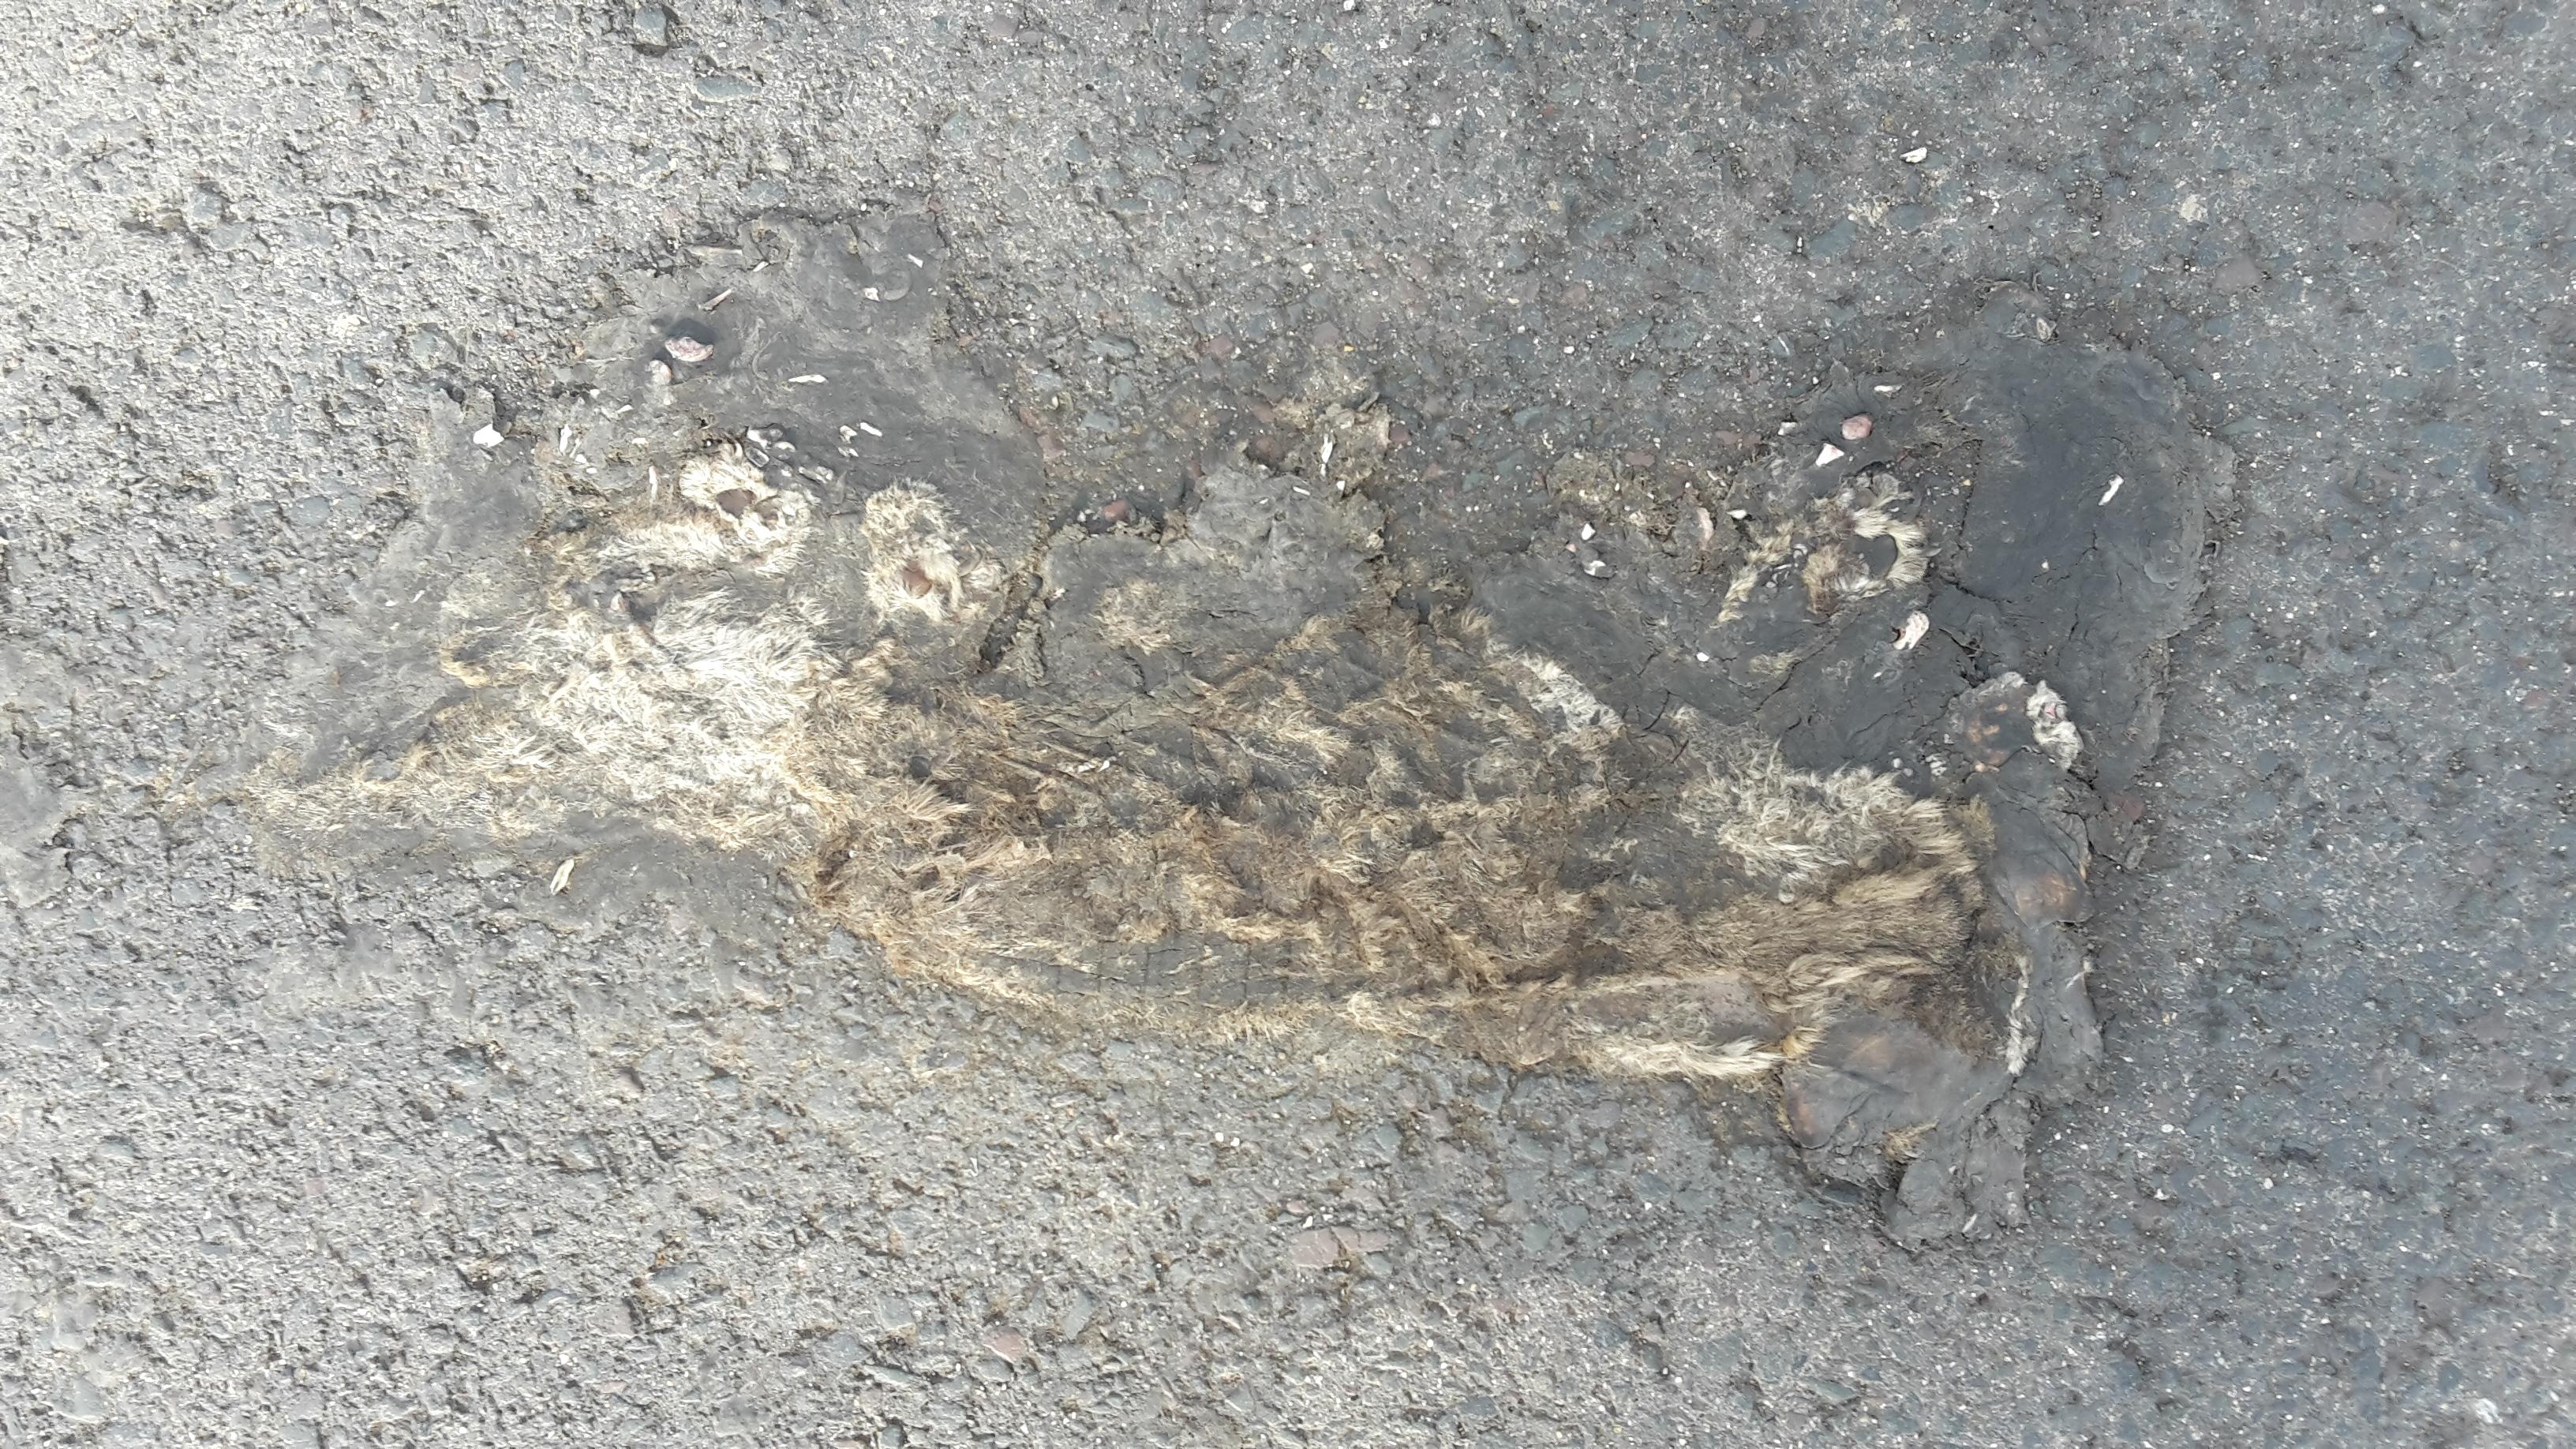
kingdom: Animalia
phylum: Chordata
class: Mammalia
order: Carnivora
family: Felidae
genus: Felis
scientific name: Felis catus
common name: Domestic cat
